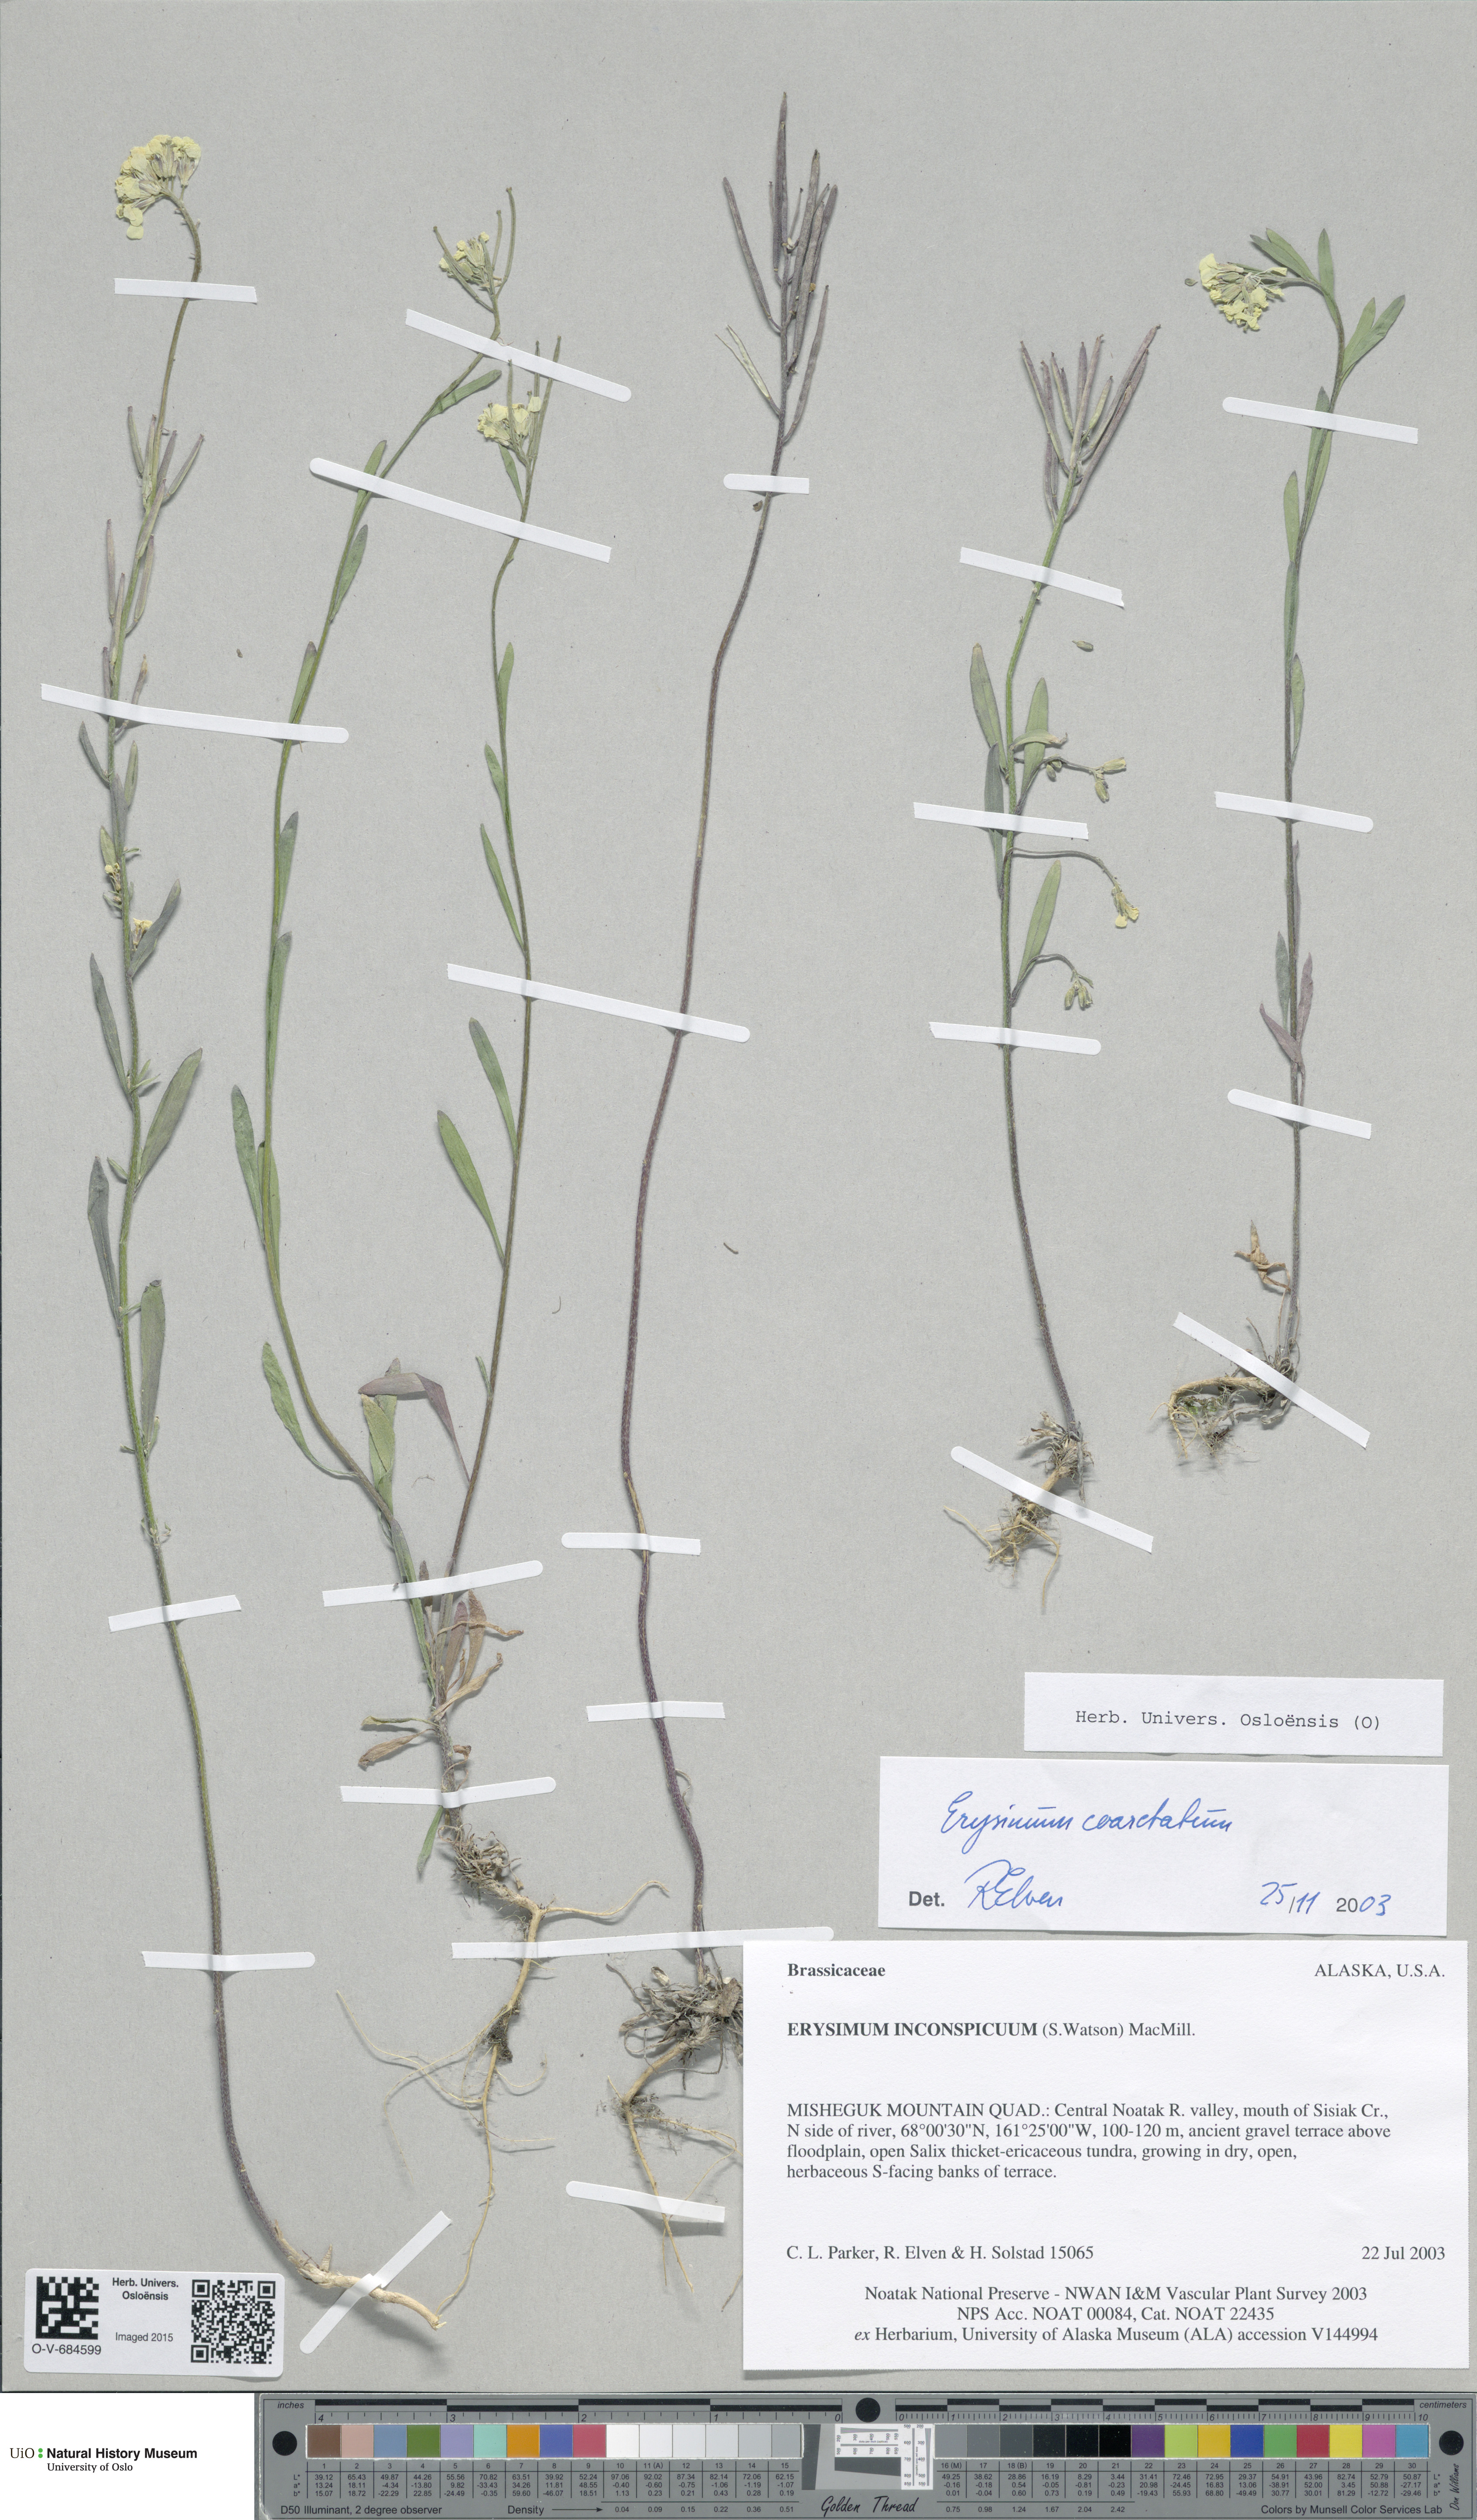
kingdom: Plantae
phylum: Tracheophyta
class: Magnoliopsida
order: Brassicales
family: Brassicaceae
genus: Erysimum
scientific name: Erysimum coarctatum
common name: Gulf of st. lawrence wormseed mustard
